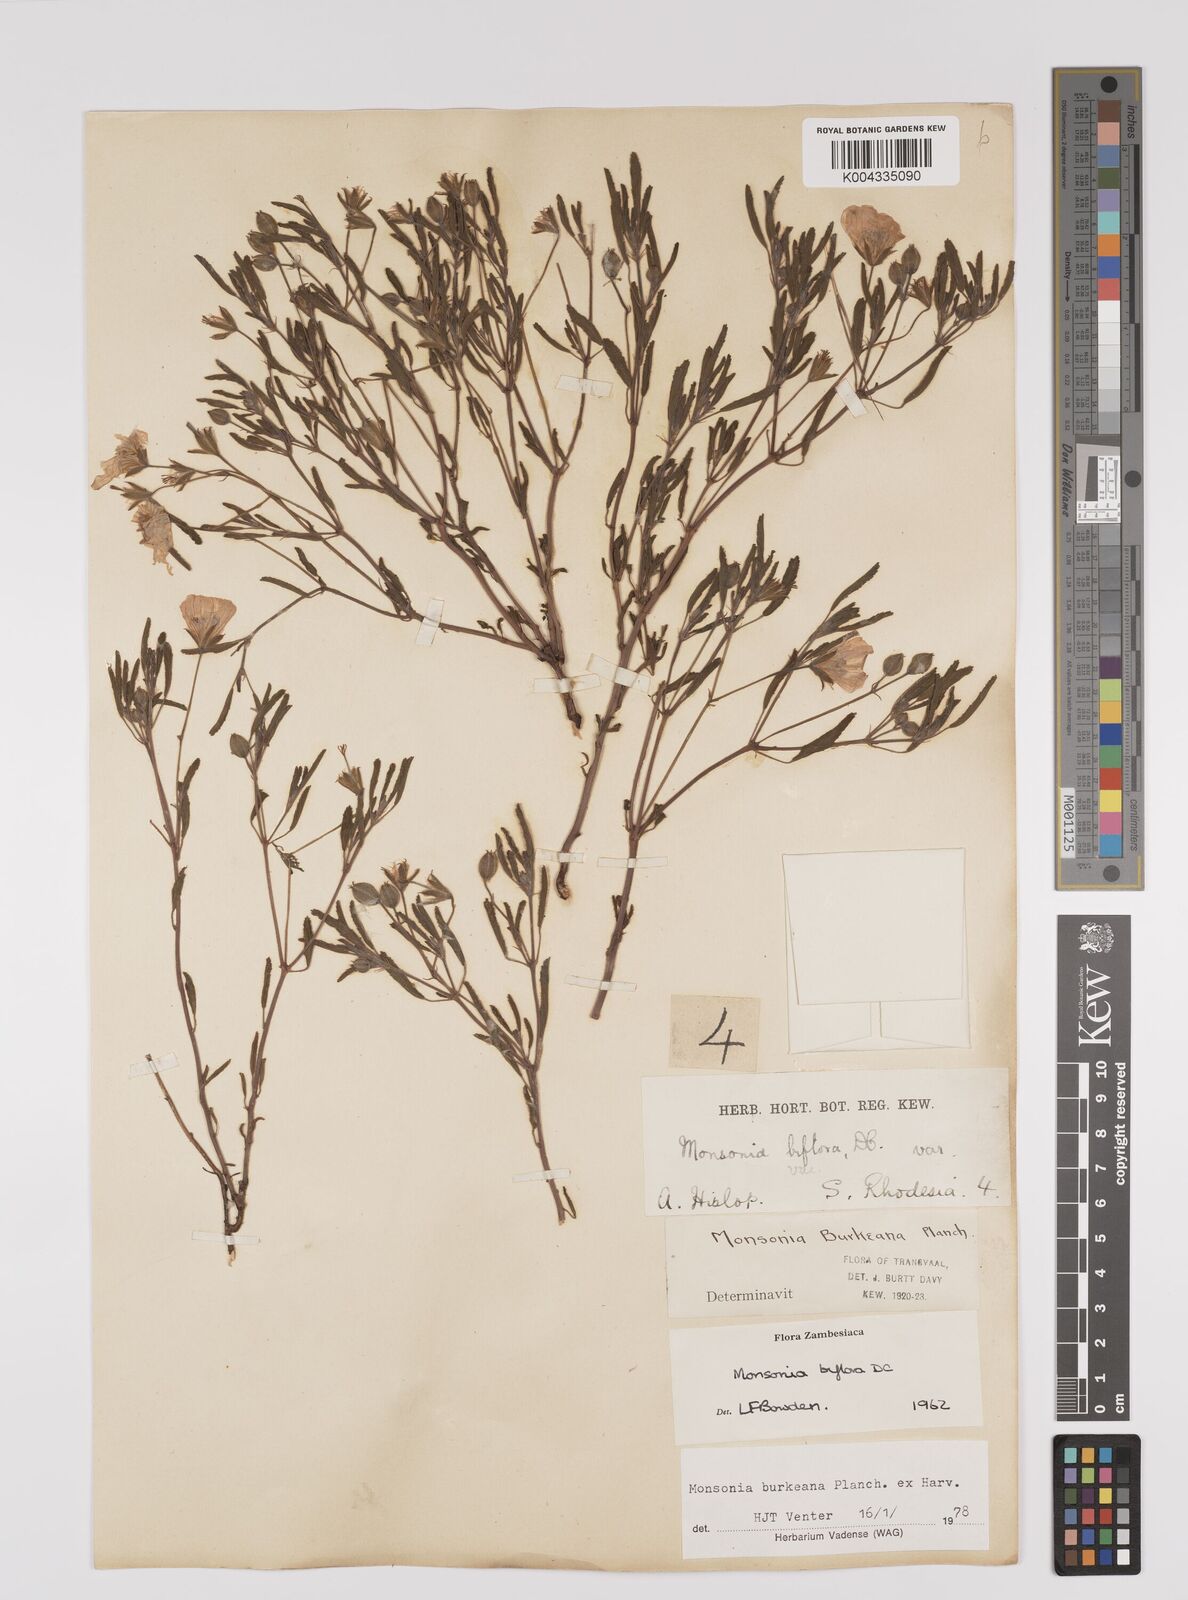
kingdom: Plantae
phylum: Tracheophyta
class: Magnoliopsida
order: Geraniales
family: Geraniaceae
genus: Monsonia
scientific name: Monsonia biflora
